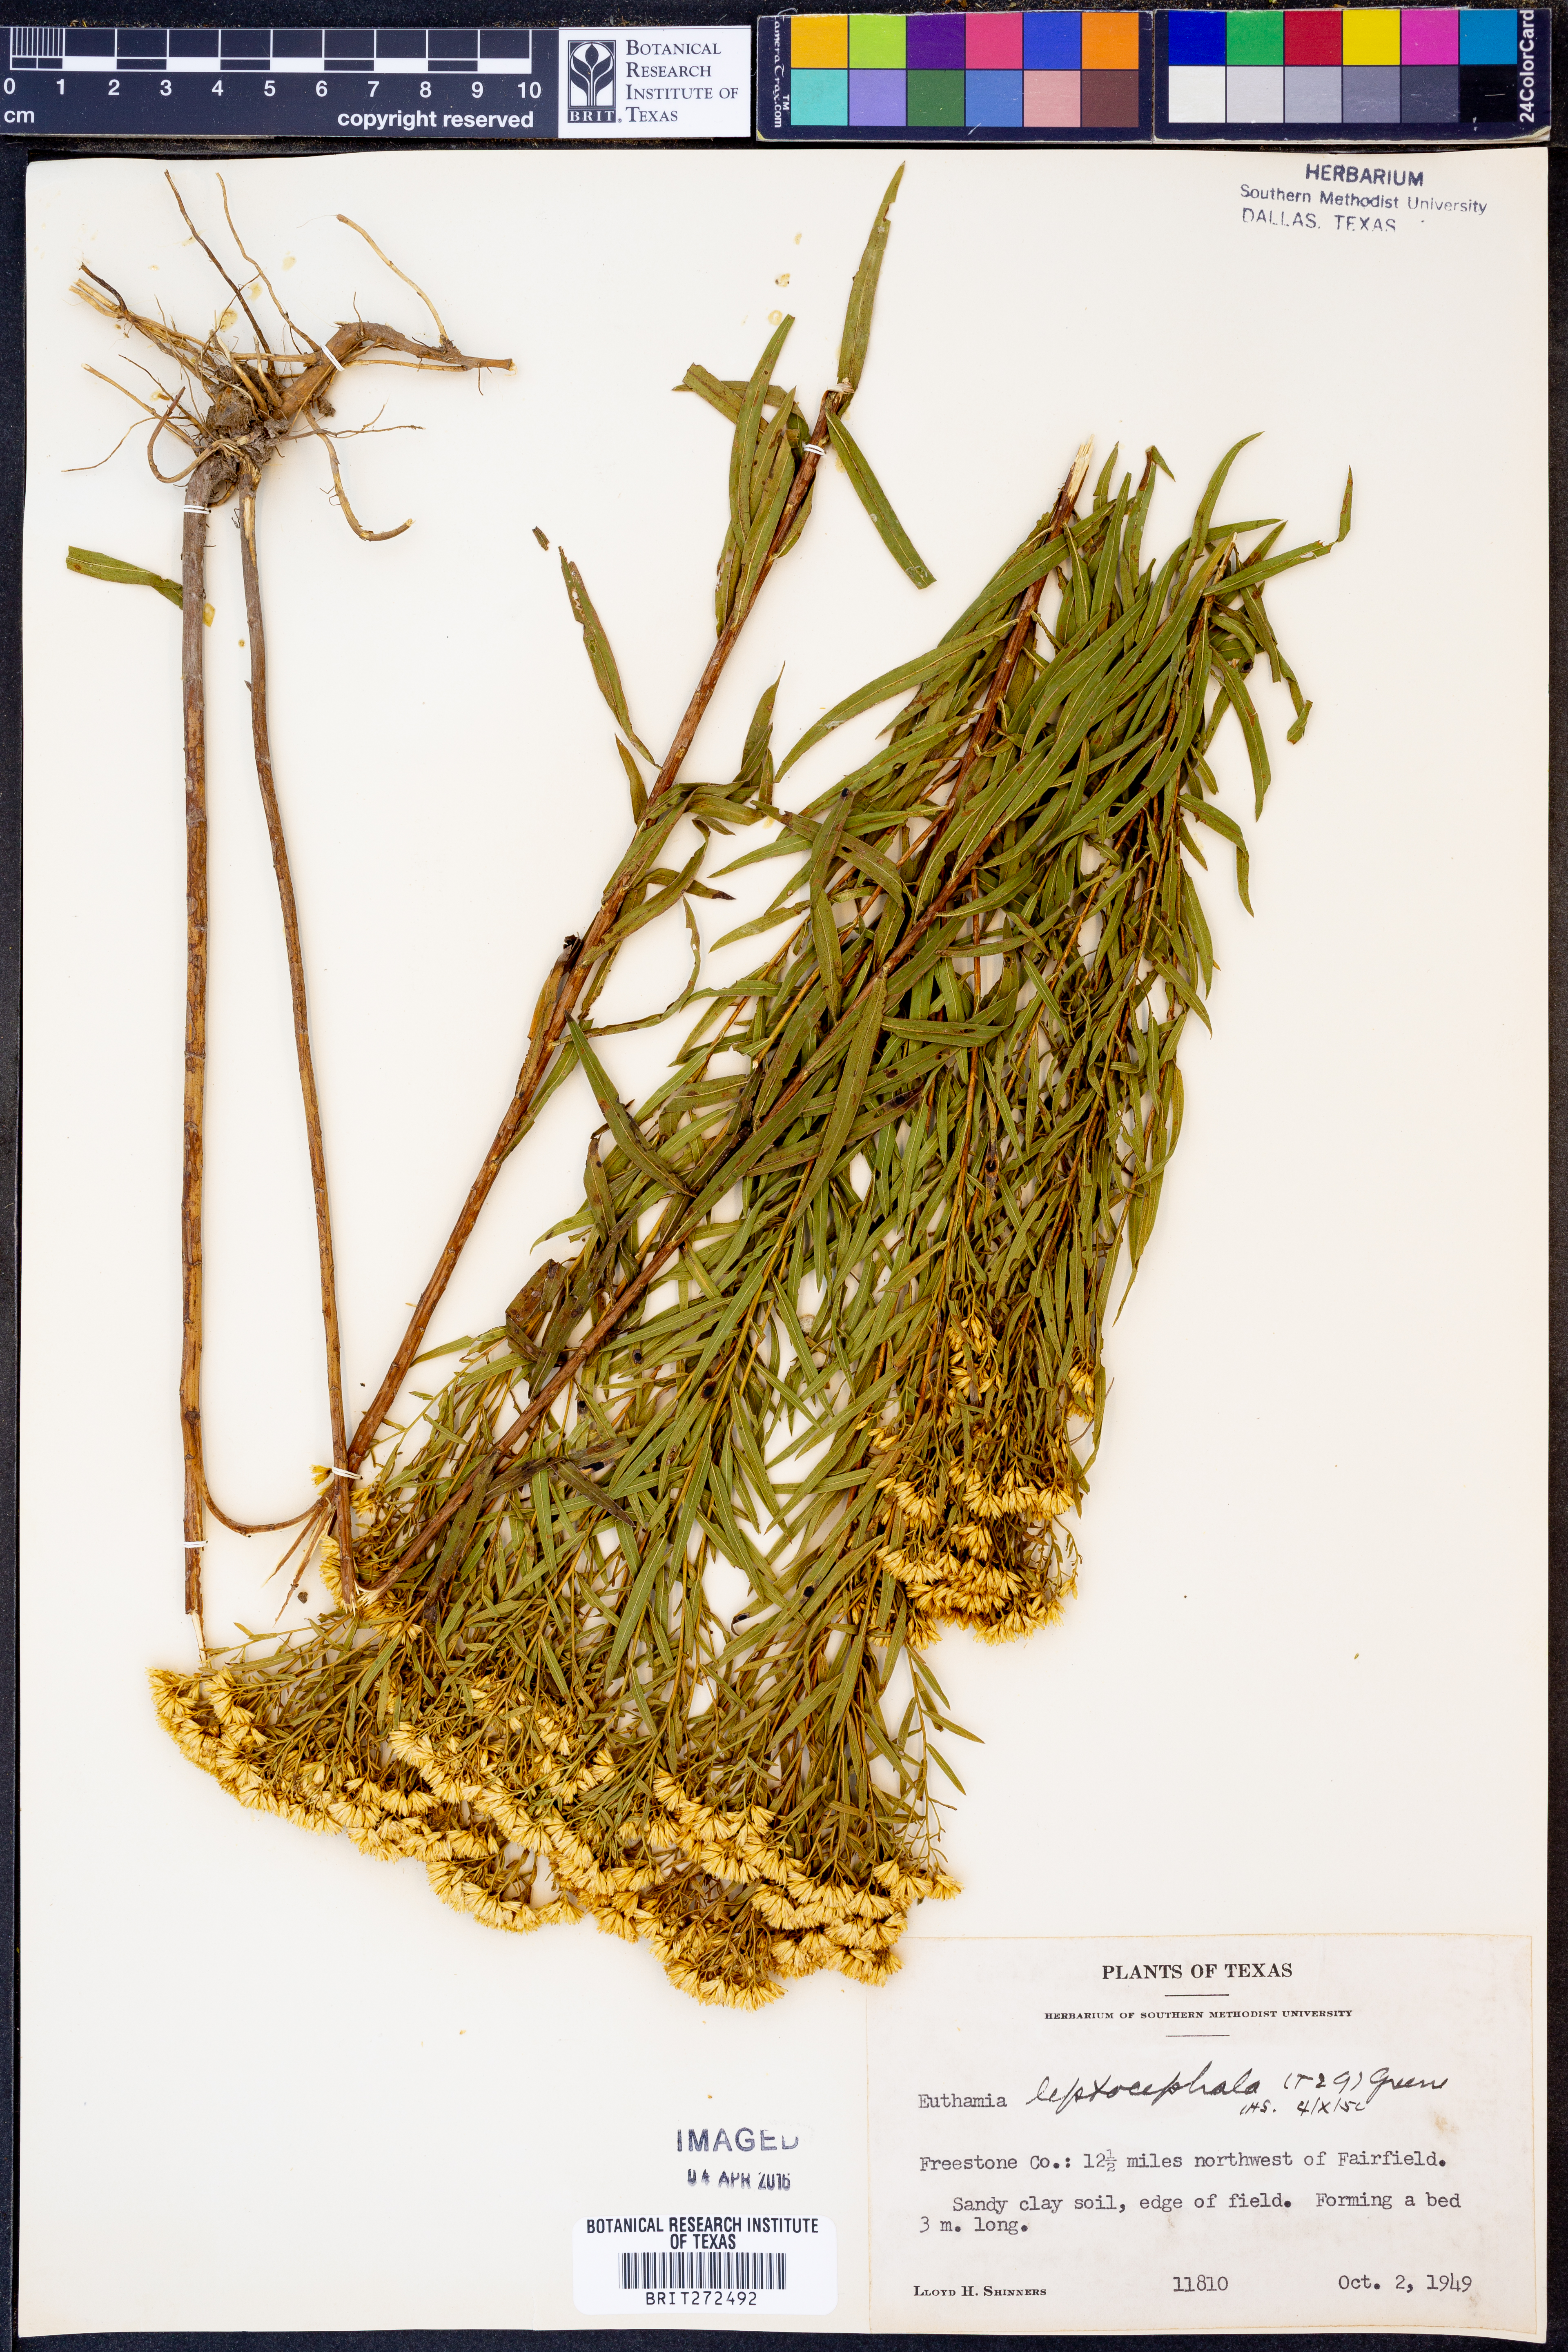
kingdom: Plantae
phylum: Tracheophyta
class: Magnoliopsida
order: Asterales
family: Asteraceae
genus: Euthamia
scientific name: Euthamia leptocephala
